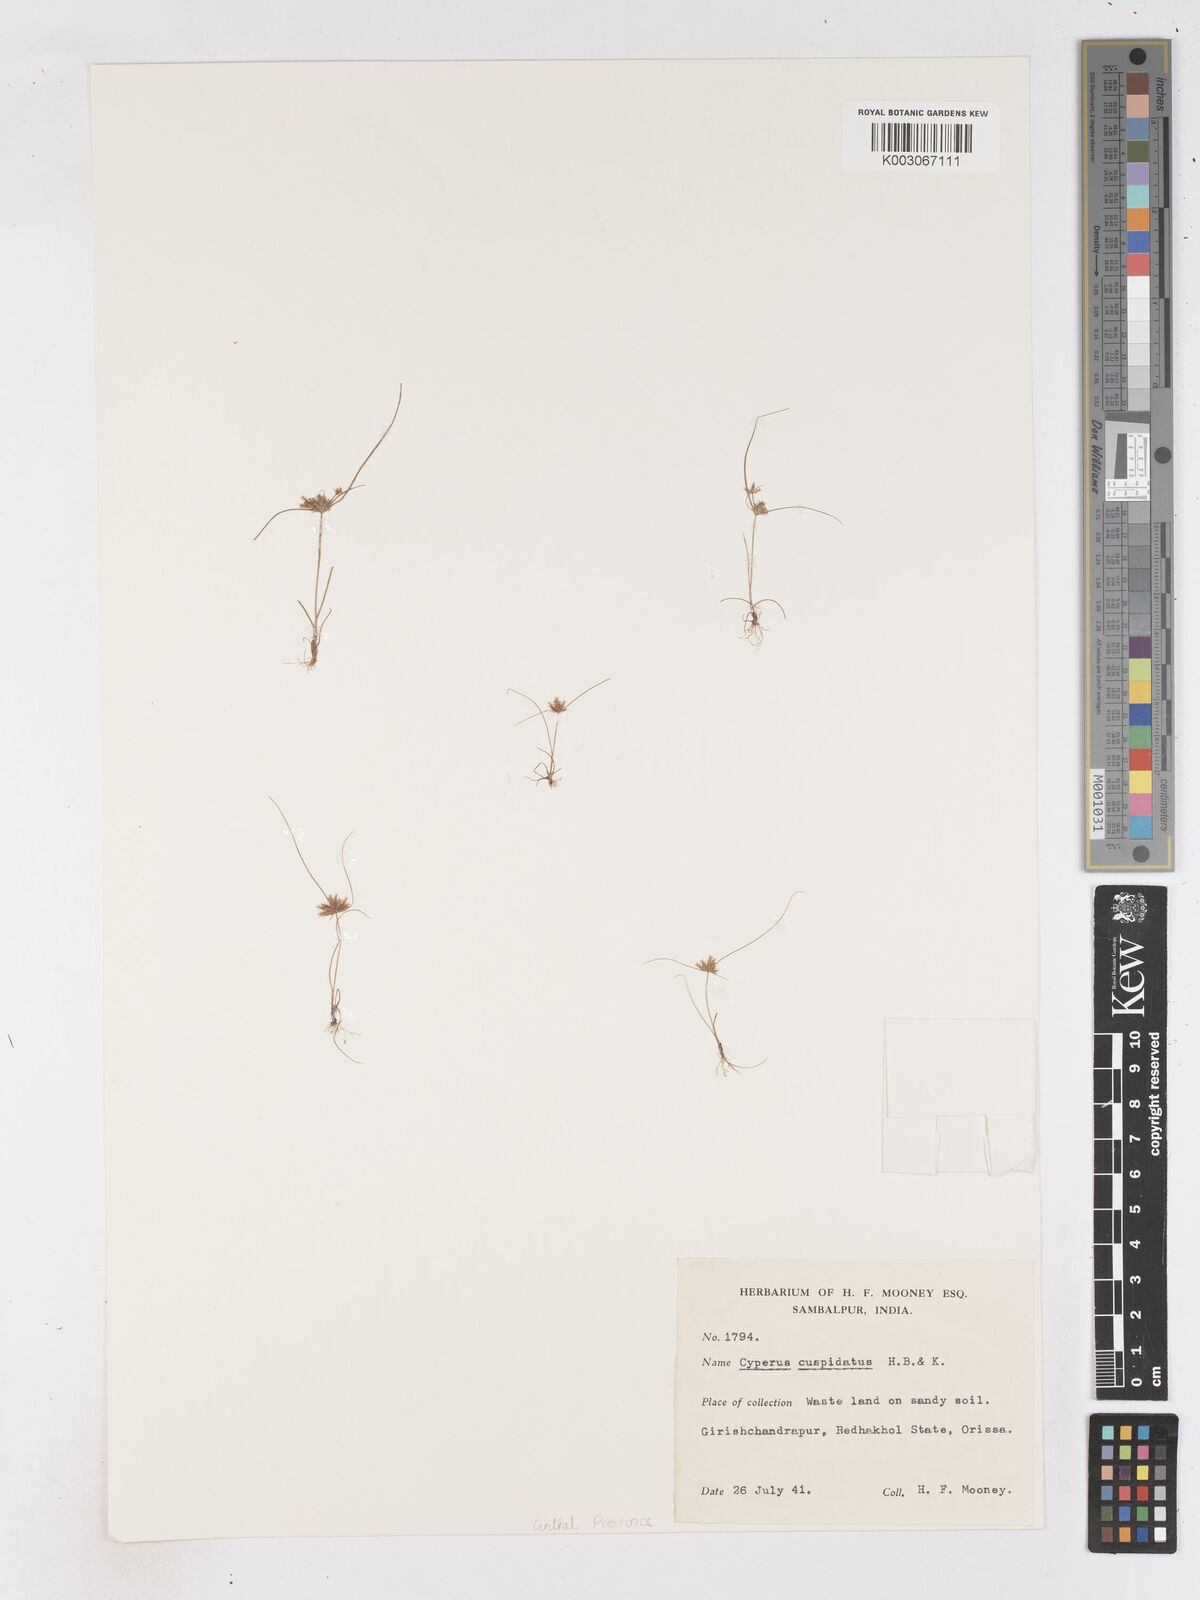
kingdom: Plantae
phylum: Tracheophyta
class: Liliopsida
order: Poales
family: Cyperaceae
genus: Cyperus
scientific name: Cyperus cuspidatus
